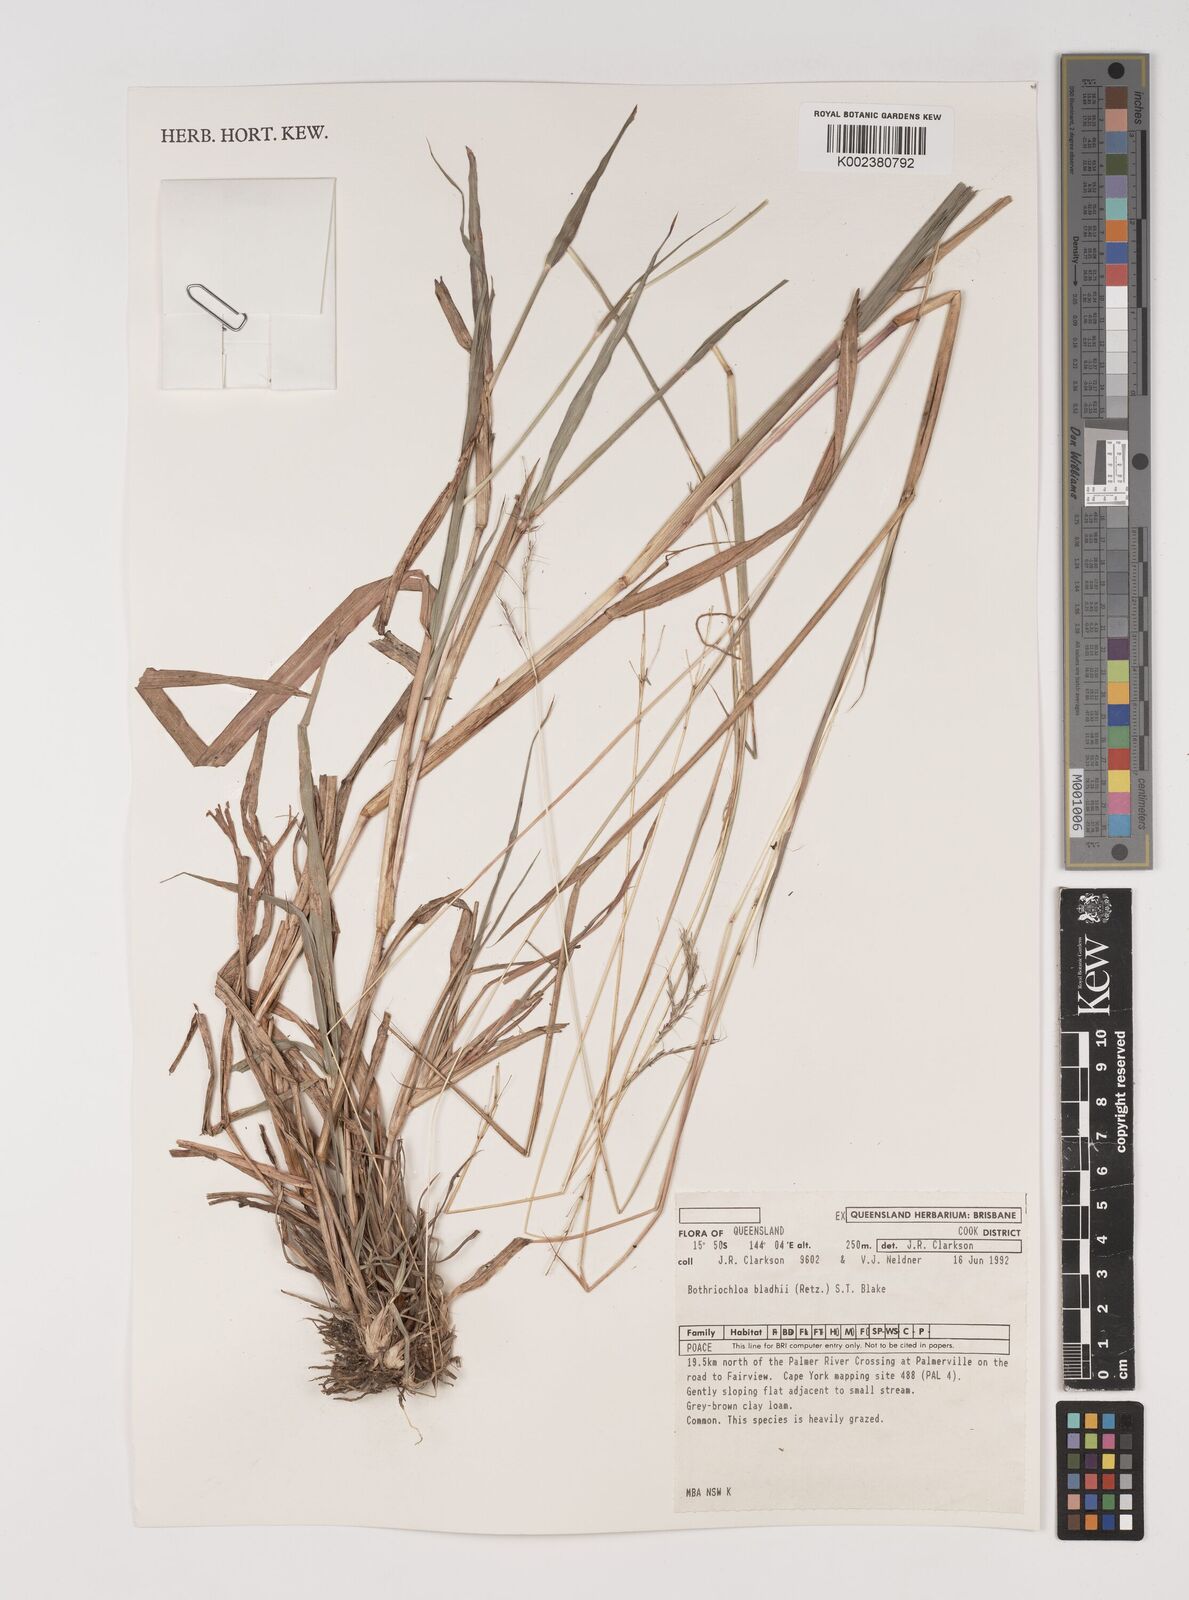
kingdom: Plantae
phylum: Tracheophyta
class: Liliopsida
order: Poales
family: Poaceae
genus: Bothriochloa
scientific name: Bothriochloa bladhii
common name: Caucasian bluestem
